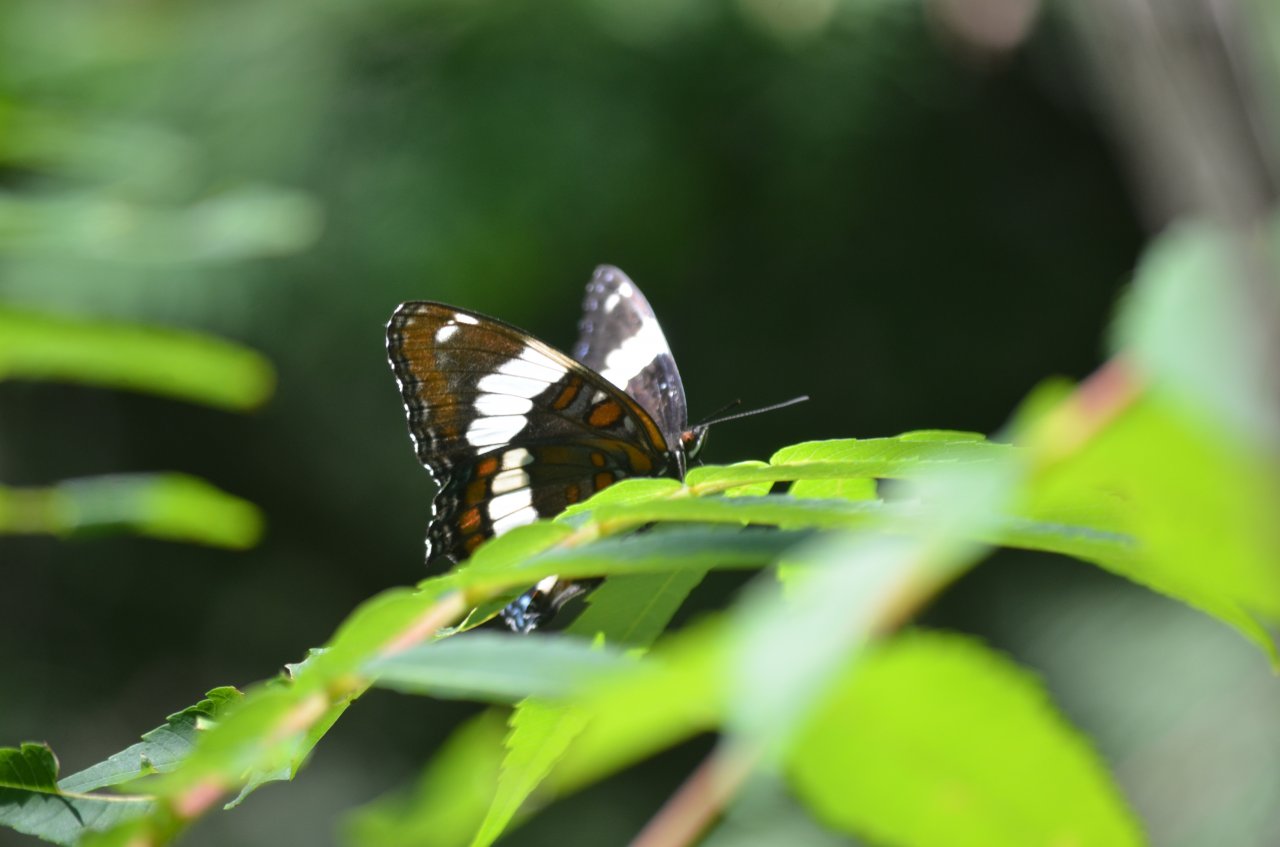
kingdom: Animalia
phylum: Arthropoda
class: Insecta
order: Lepidoptera
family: Nymphalidae
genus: Limenitis
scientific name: Limenitis arthemis
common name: Red-spotted Admiral
